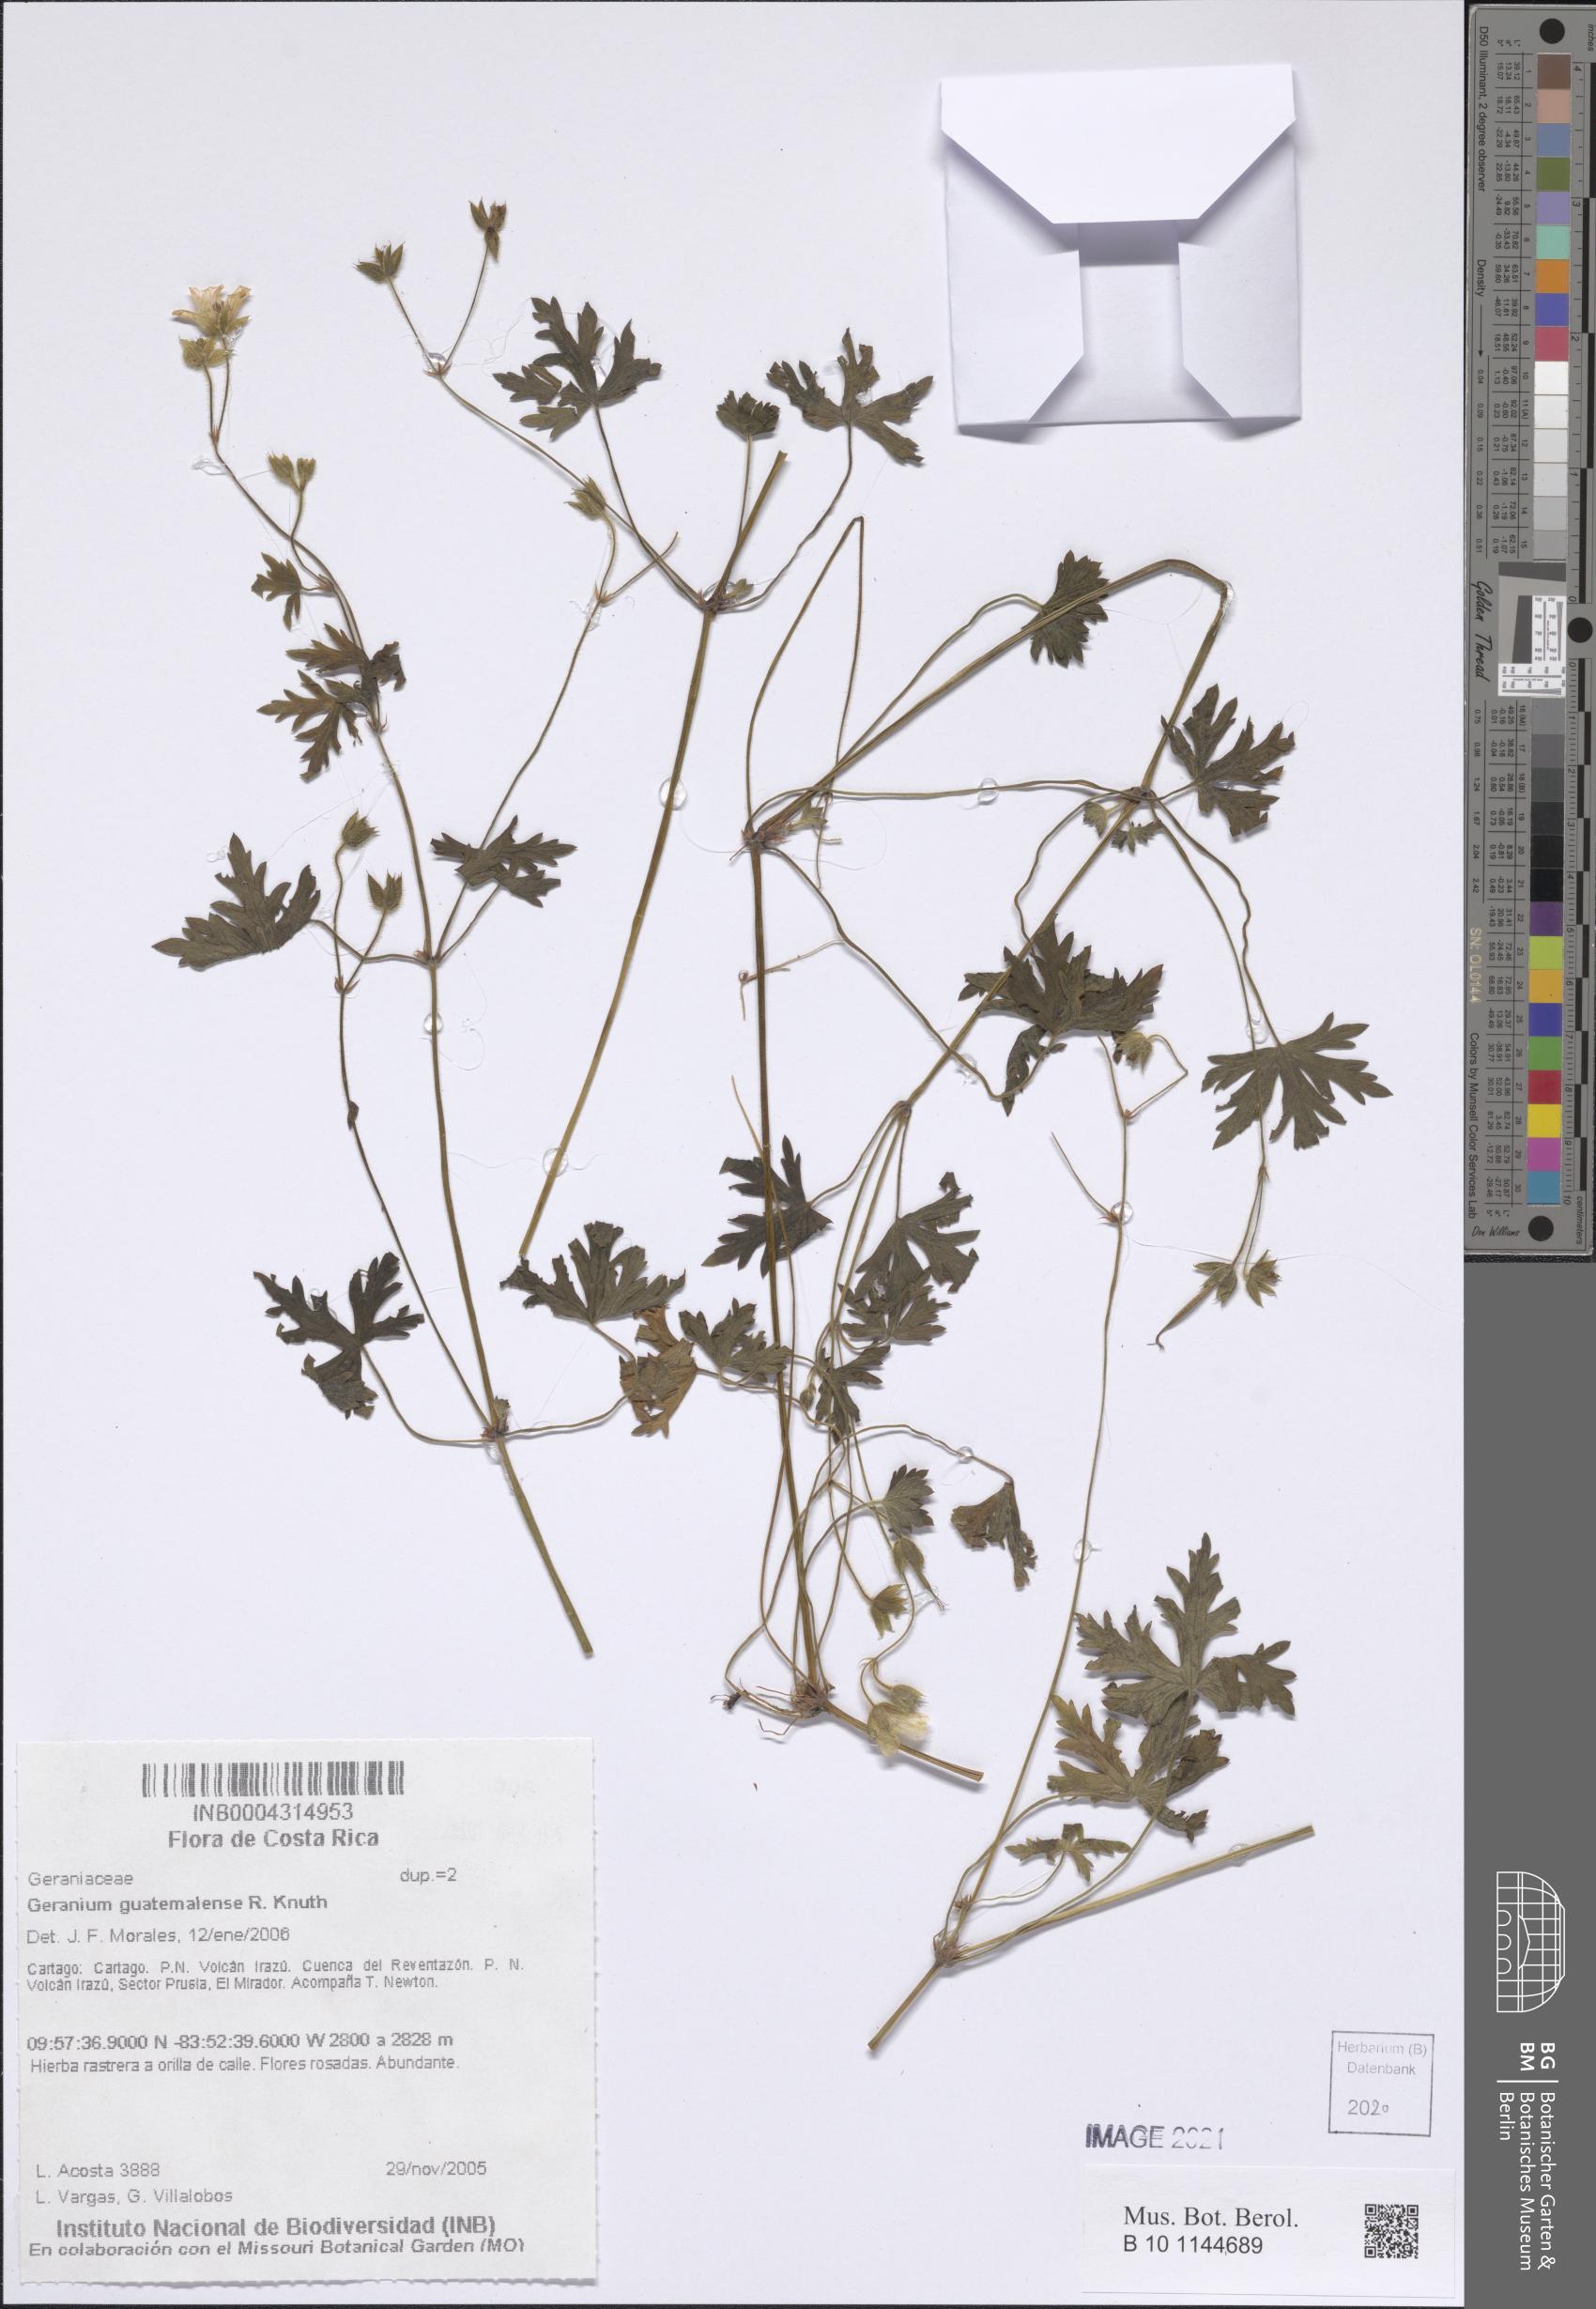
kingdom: Plantae
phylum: Tracheophyta
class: Magnoliopsida
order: Geraniales
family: Geraniaceae
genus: Geranium
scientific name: Geranium seemannii
